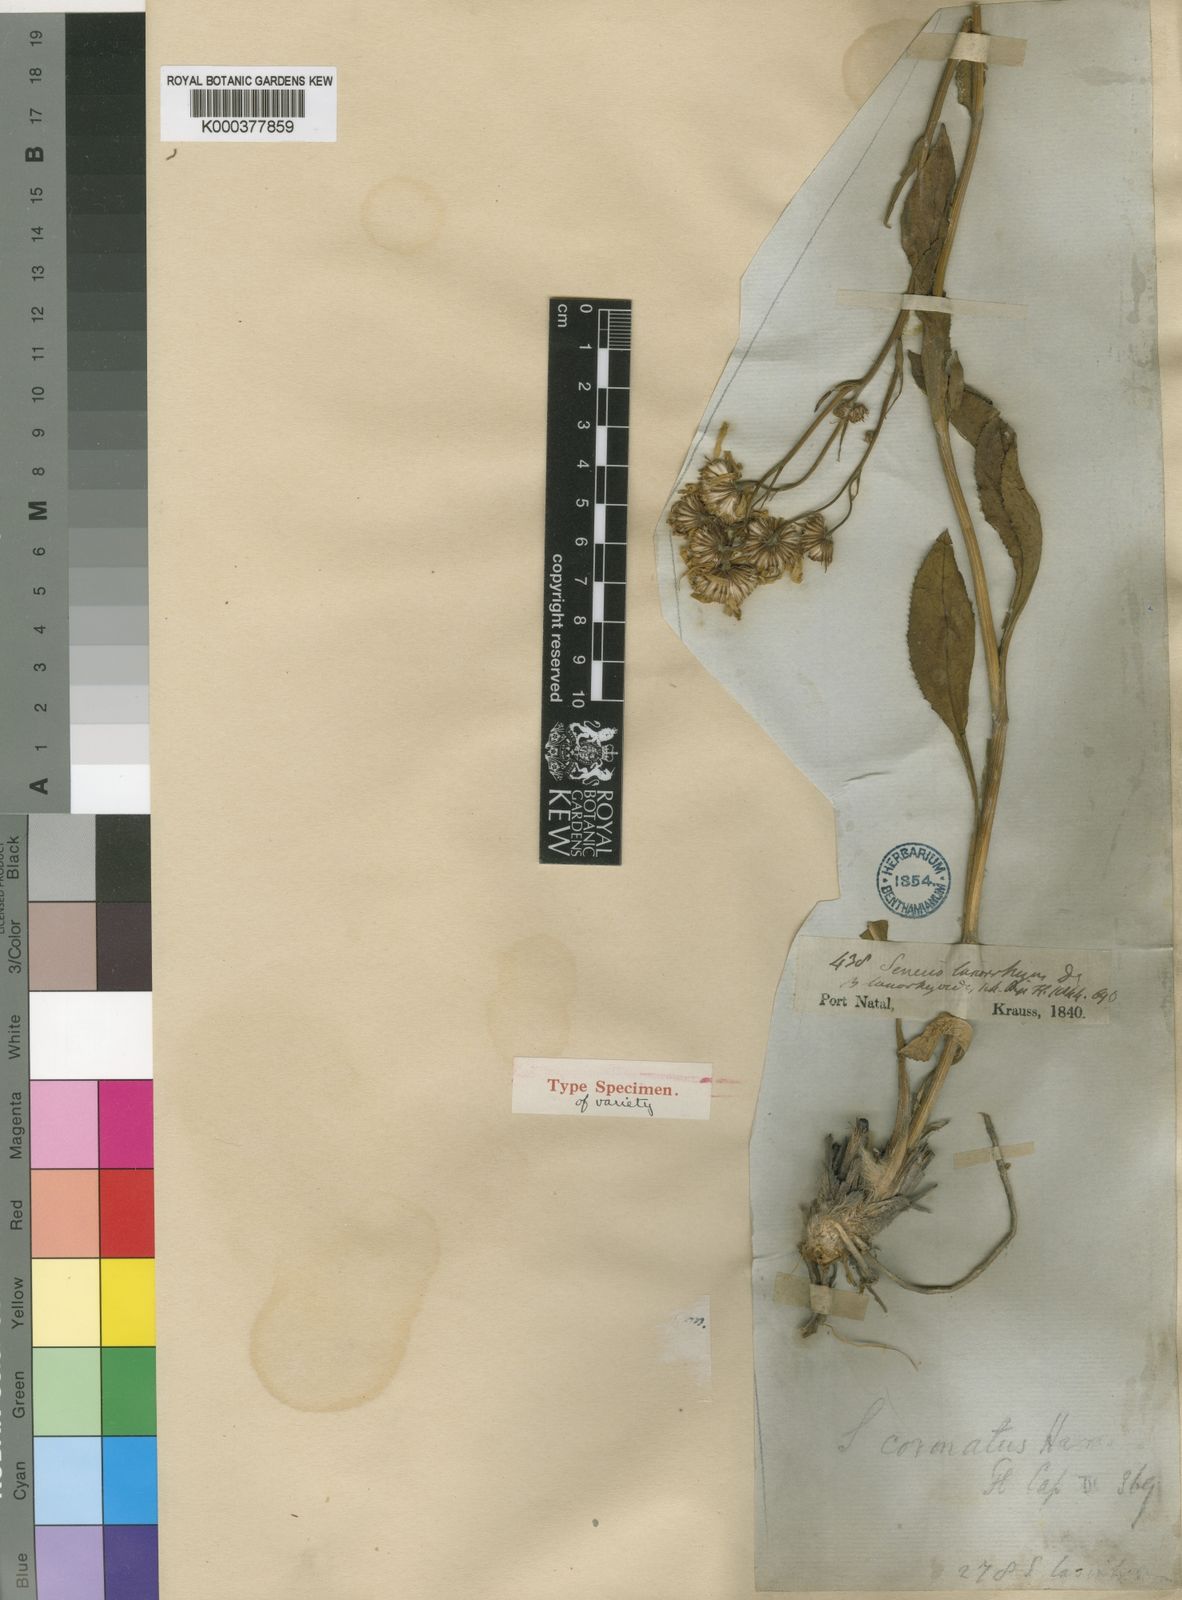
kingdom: Plantae
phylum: Tracheophyta
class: Magnoliopsida
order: Asterales
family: Asteraceae
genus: Senecio
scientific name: Senecio coronatus
